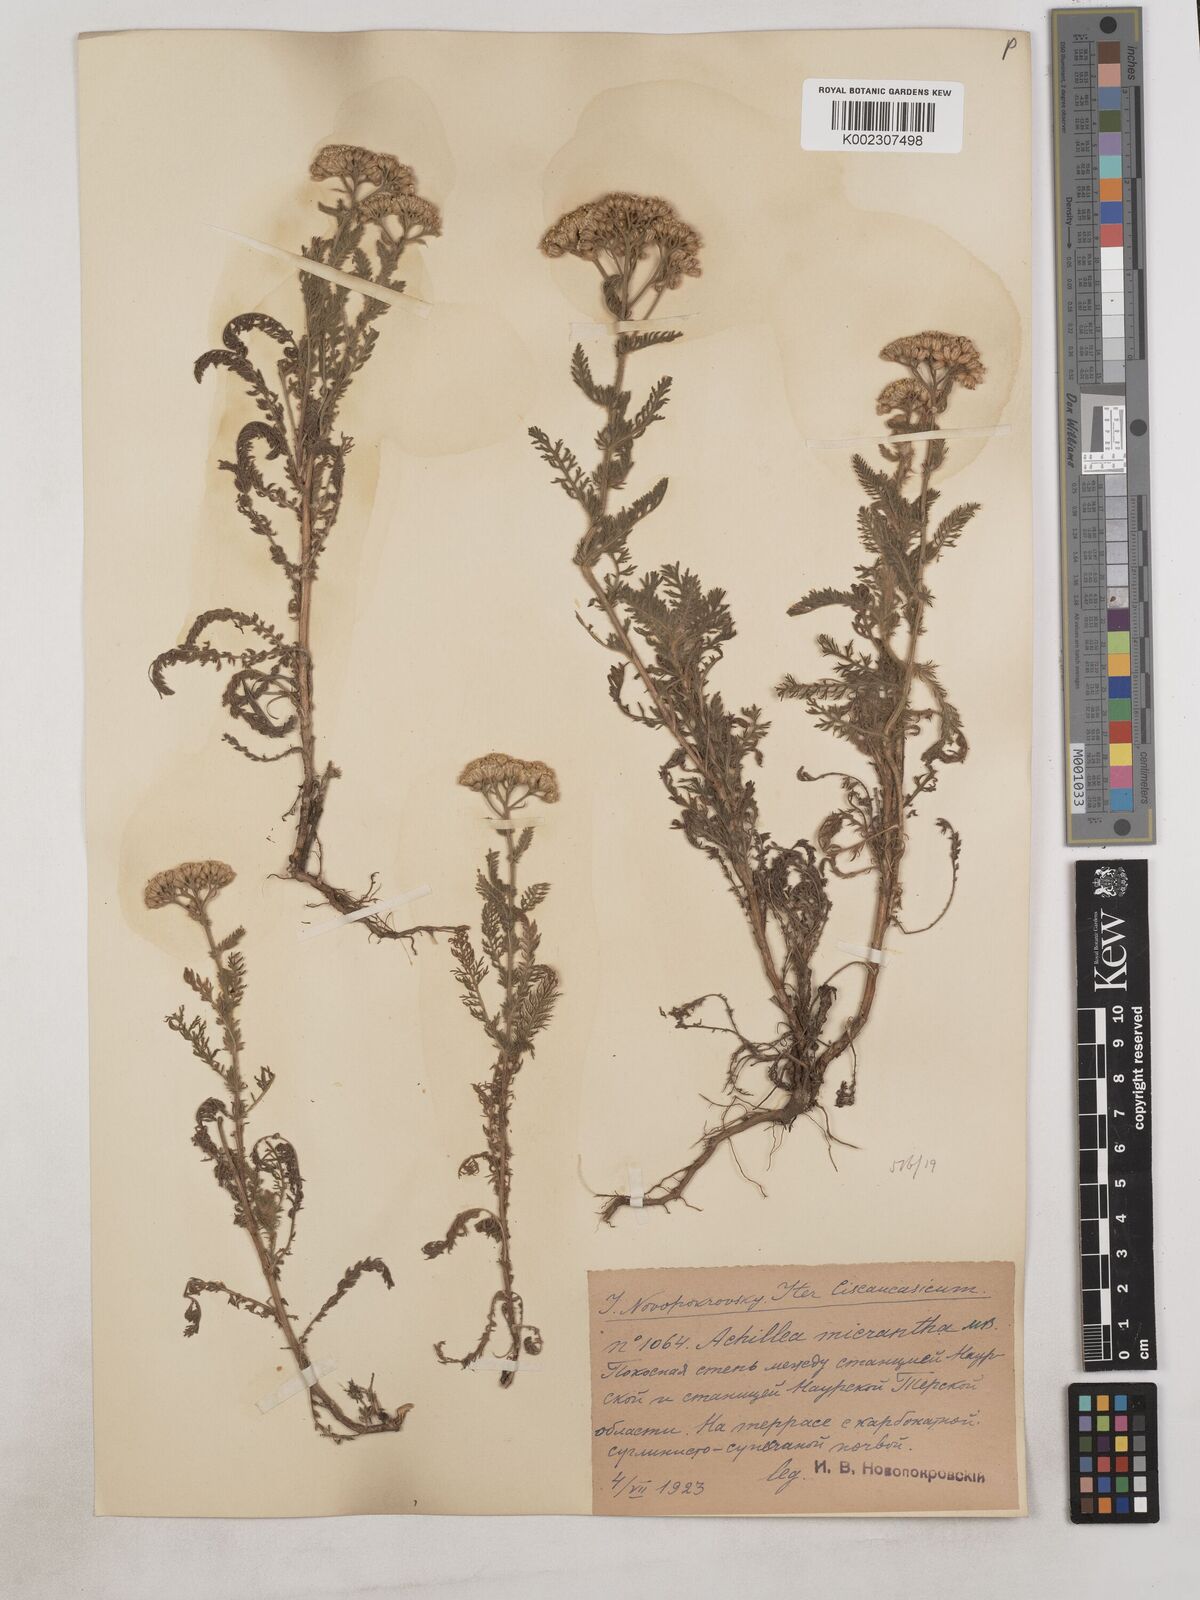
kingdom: Plantae
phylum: Tracheophyta
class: Magnoliopsida
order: Asterales
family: Asteraceae
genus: Achillea
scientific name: Achillea arabica
